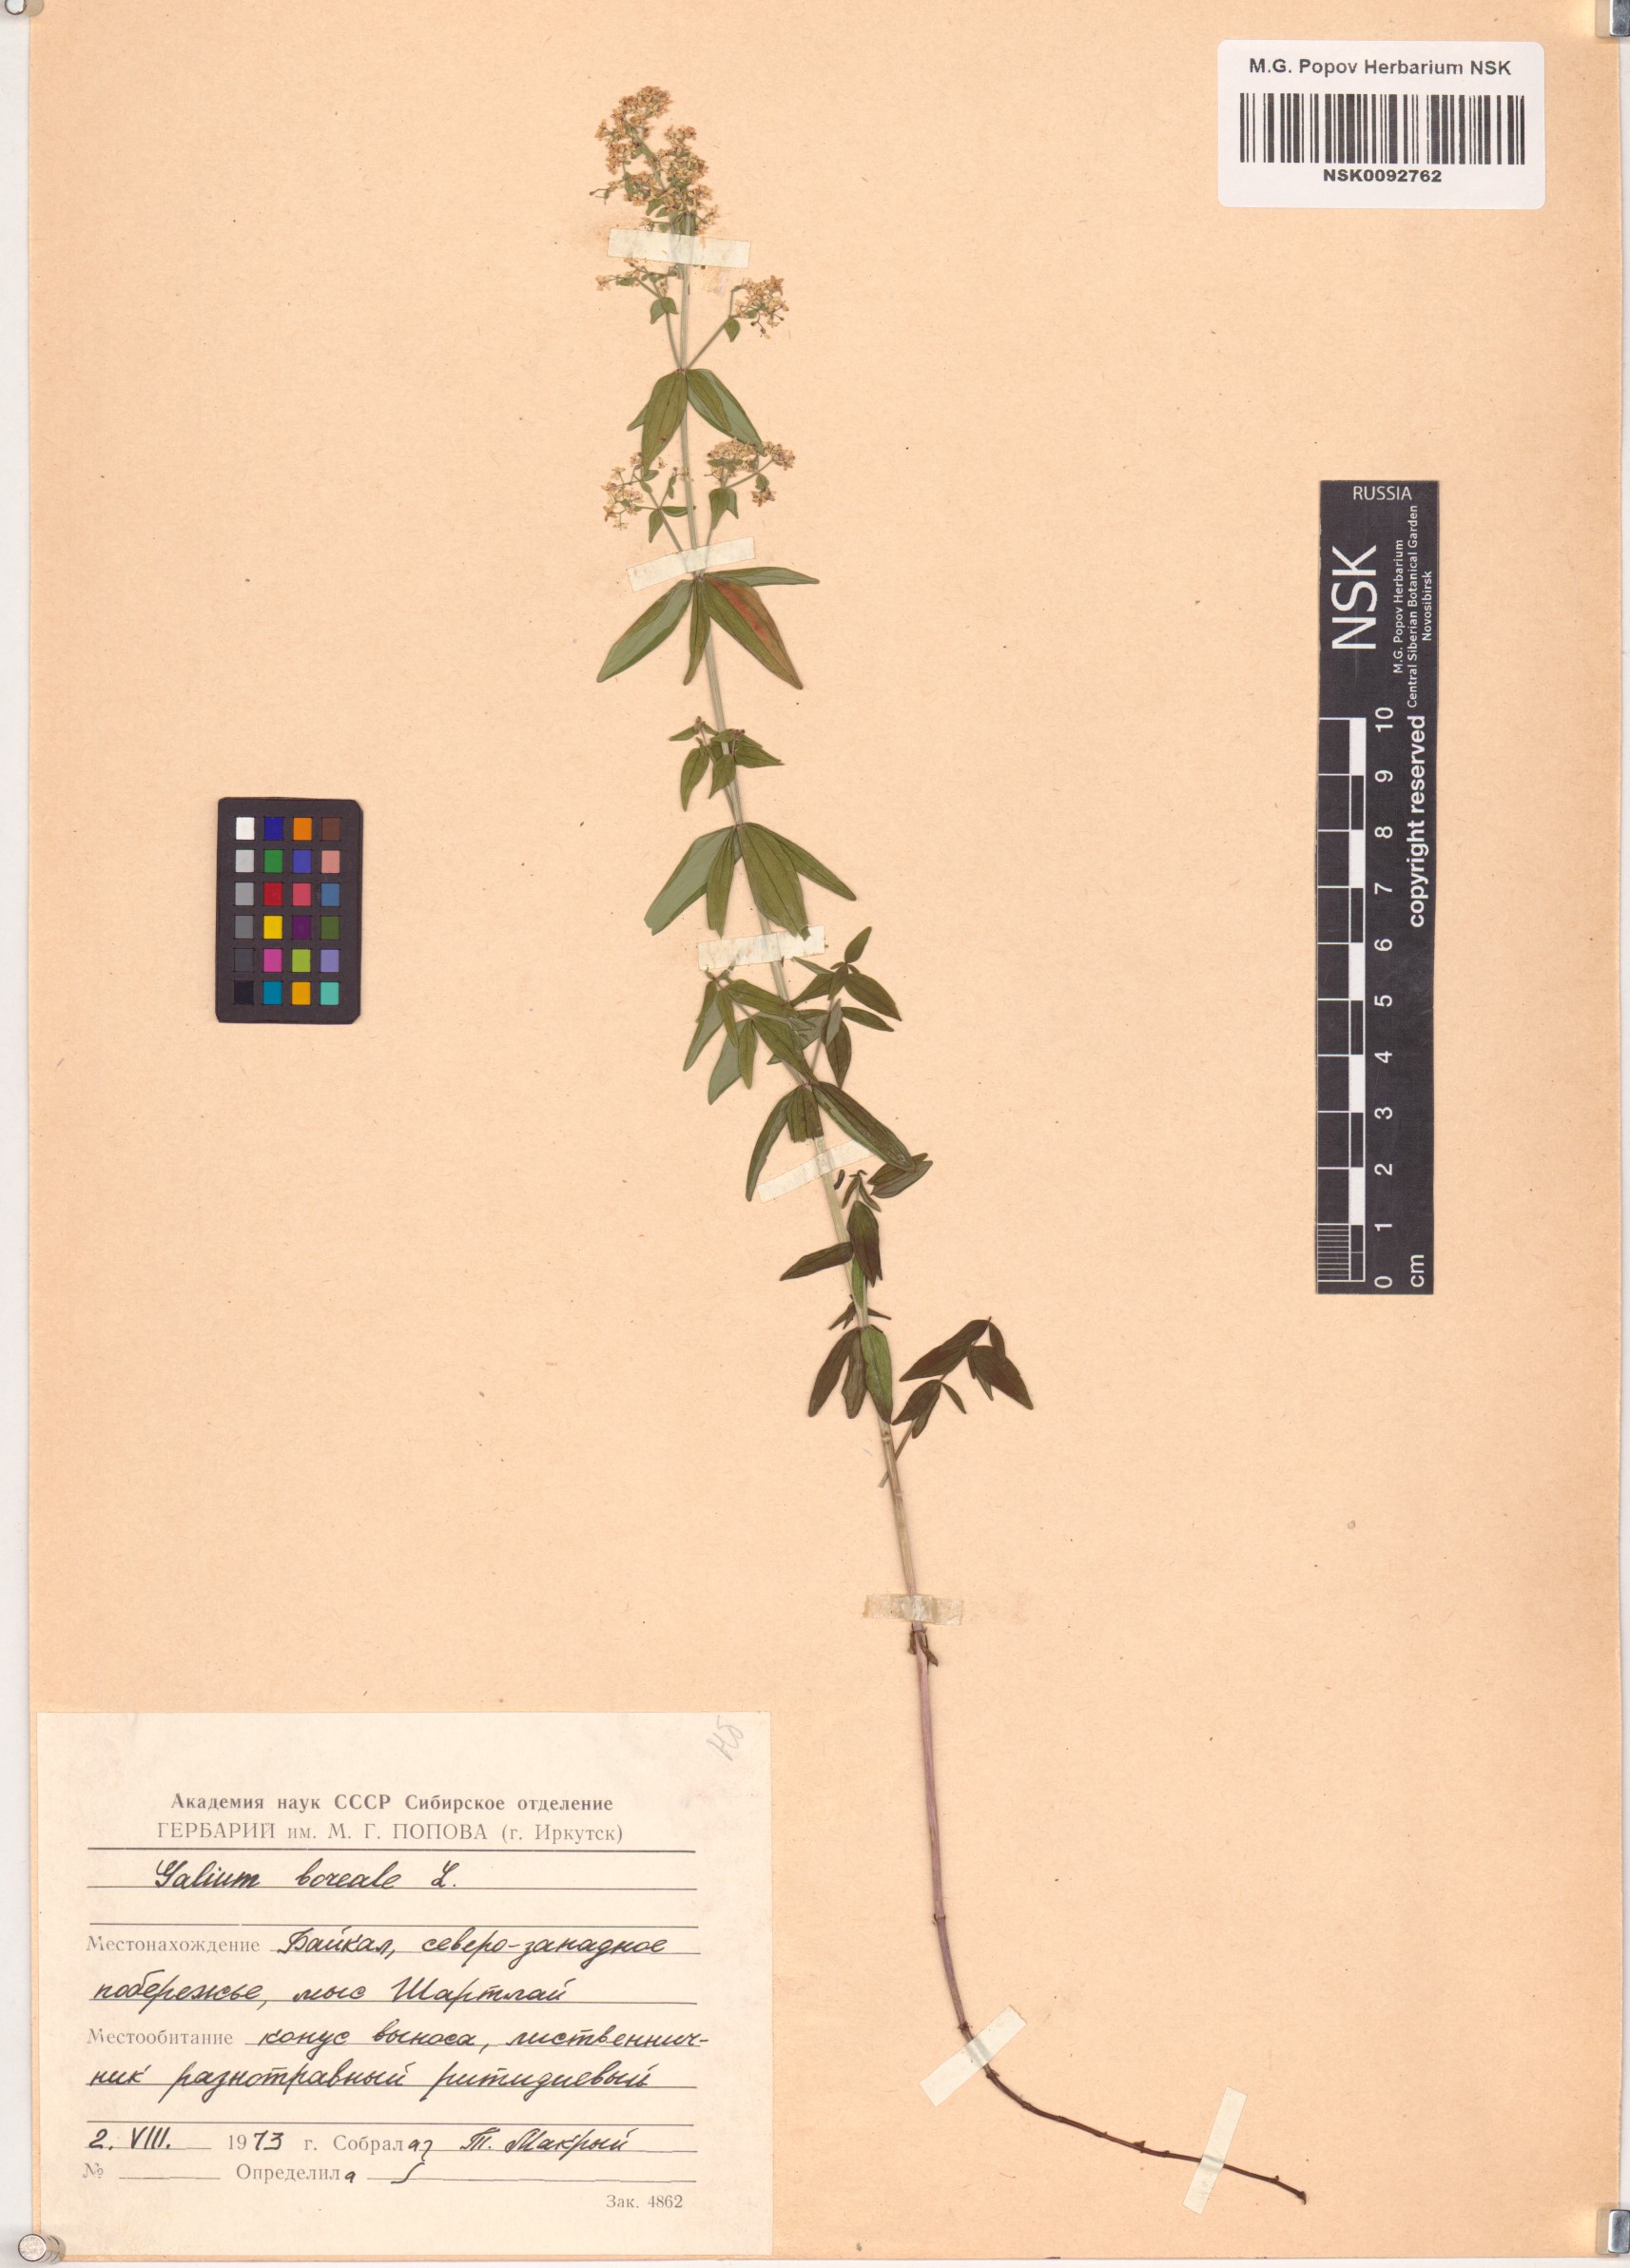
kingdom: Plantae
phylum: Tracheophyta
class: Magnoliopsida
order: Gentianales
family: Rubiaceae
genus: Galium
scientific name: Galium boreale
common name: Northern bedstraw
